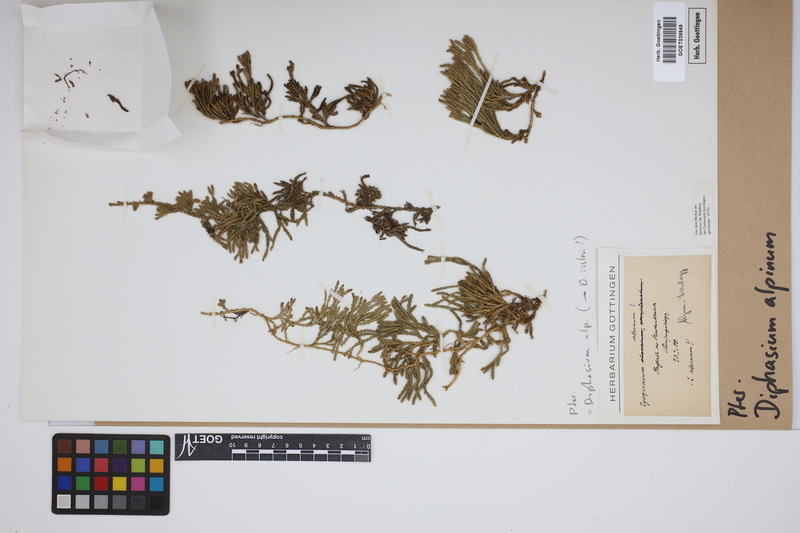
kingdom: Plantae
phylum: Tracheophyta
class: Lycopodiopsida
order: Lycopodiales
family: Lycopodiaceae
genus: Diphasiastrum
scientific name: Diphasiastrum alpinum
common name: Alpine clubmoss
